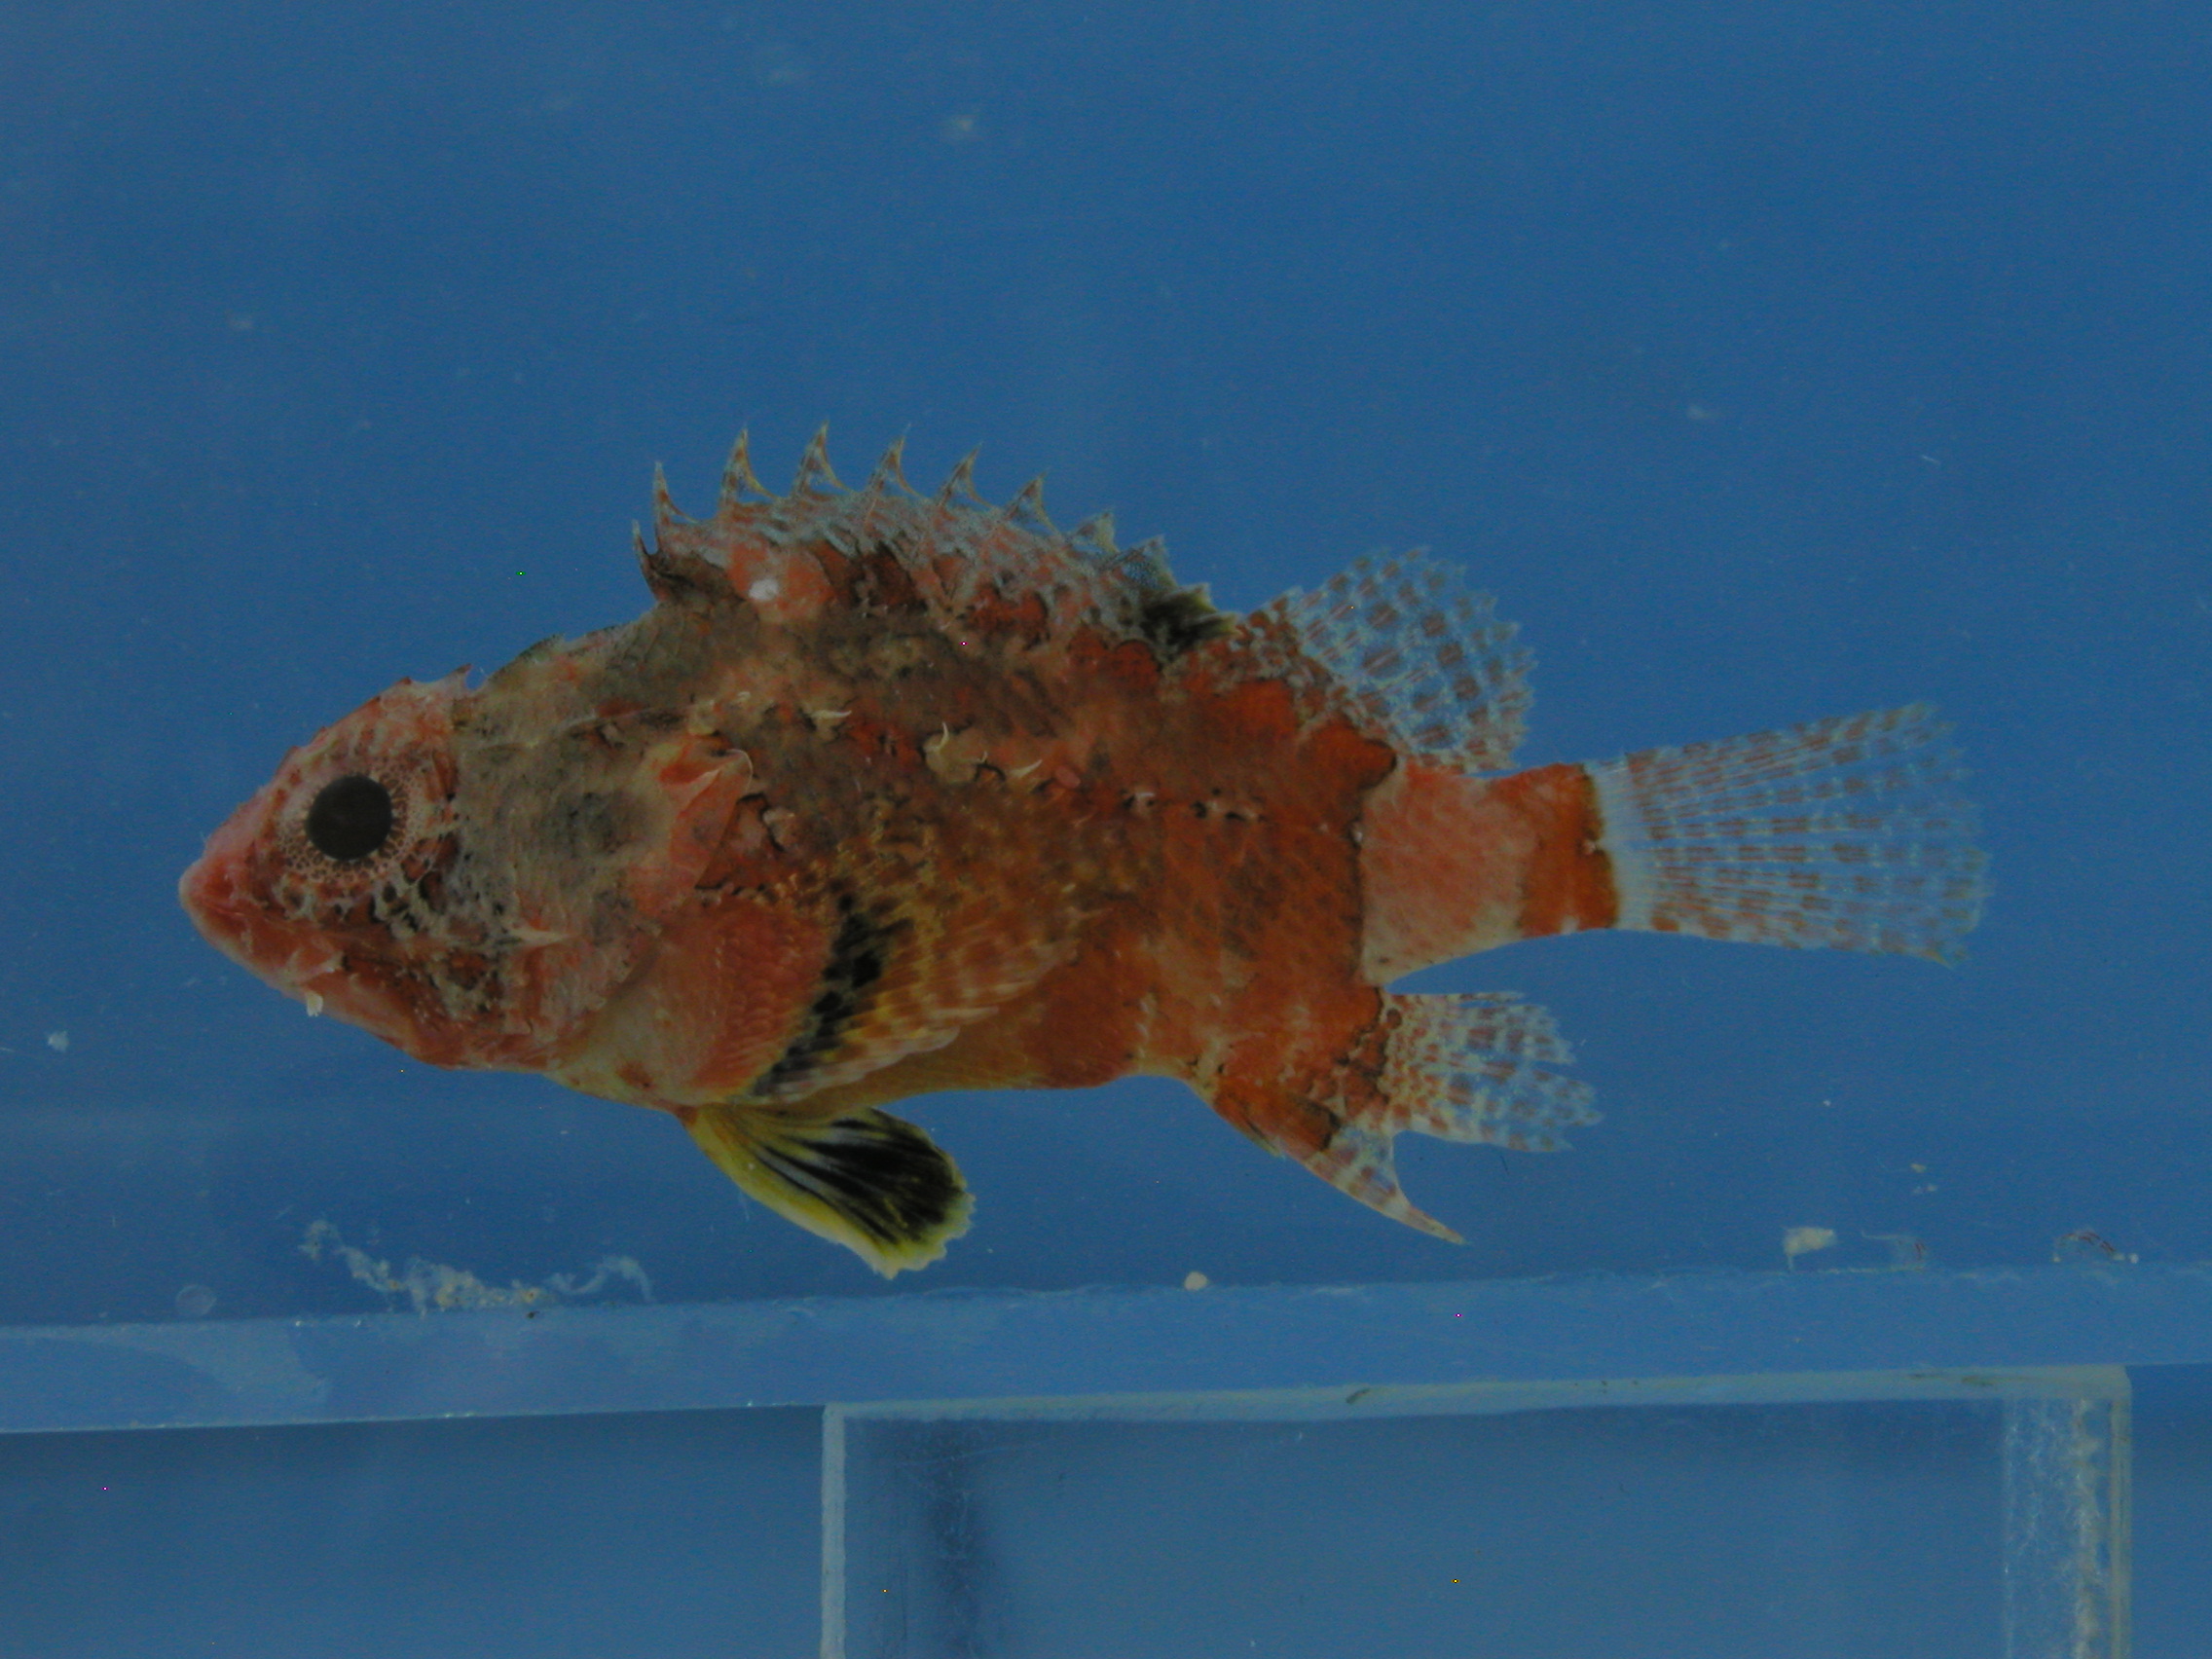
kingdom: Animalia
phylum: Chordata
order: Scorpaeniformes
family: Scorpaenidae
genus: Scorpaenodes
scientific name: Scorpaenodes varipinnis
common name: Blotchfin scorpionfish
